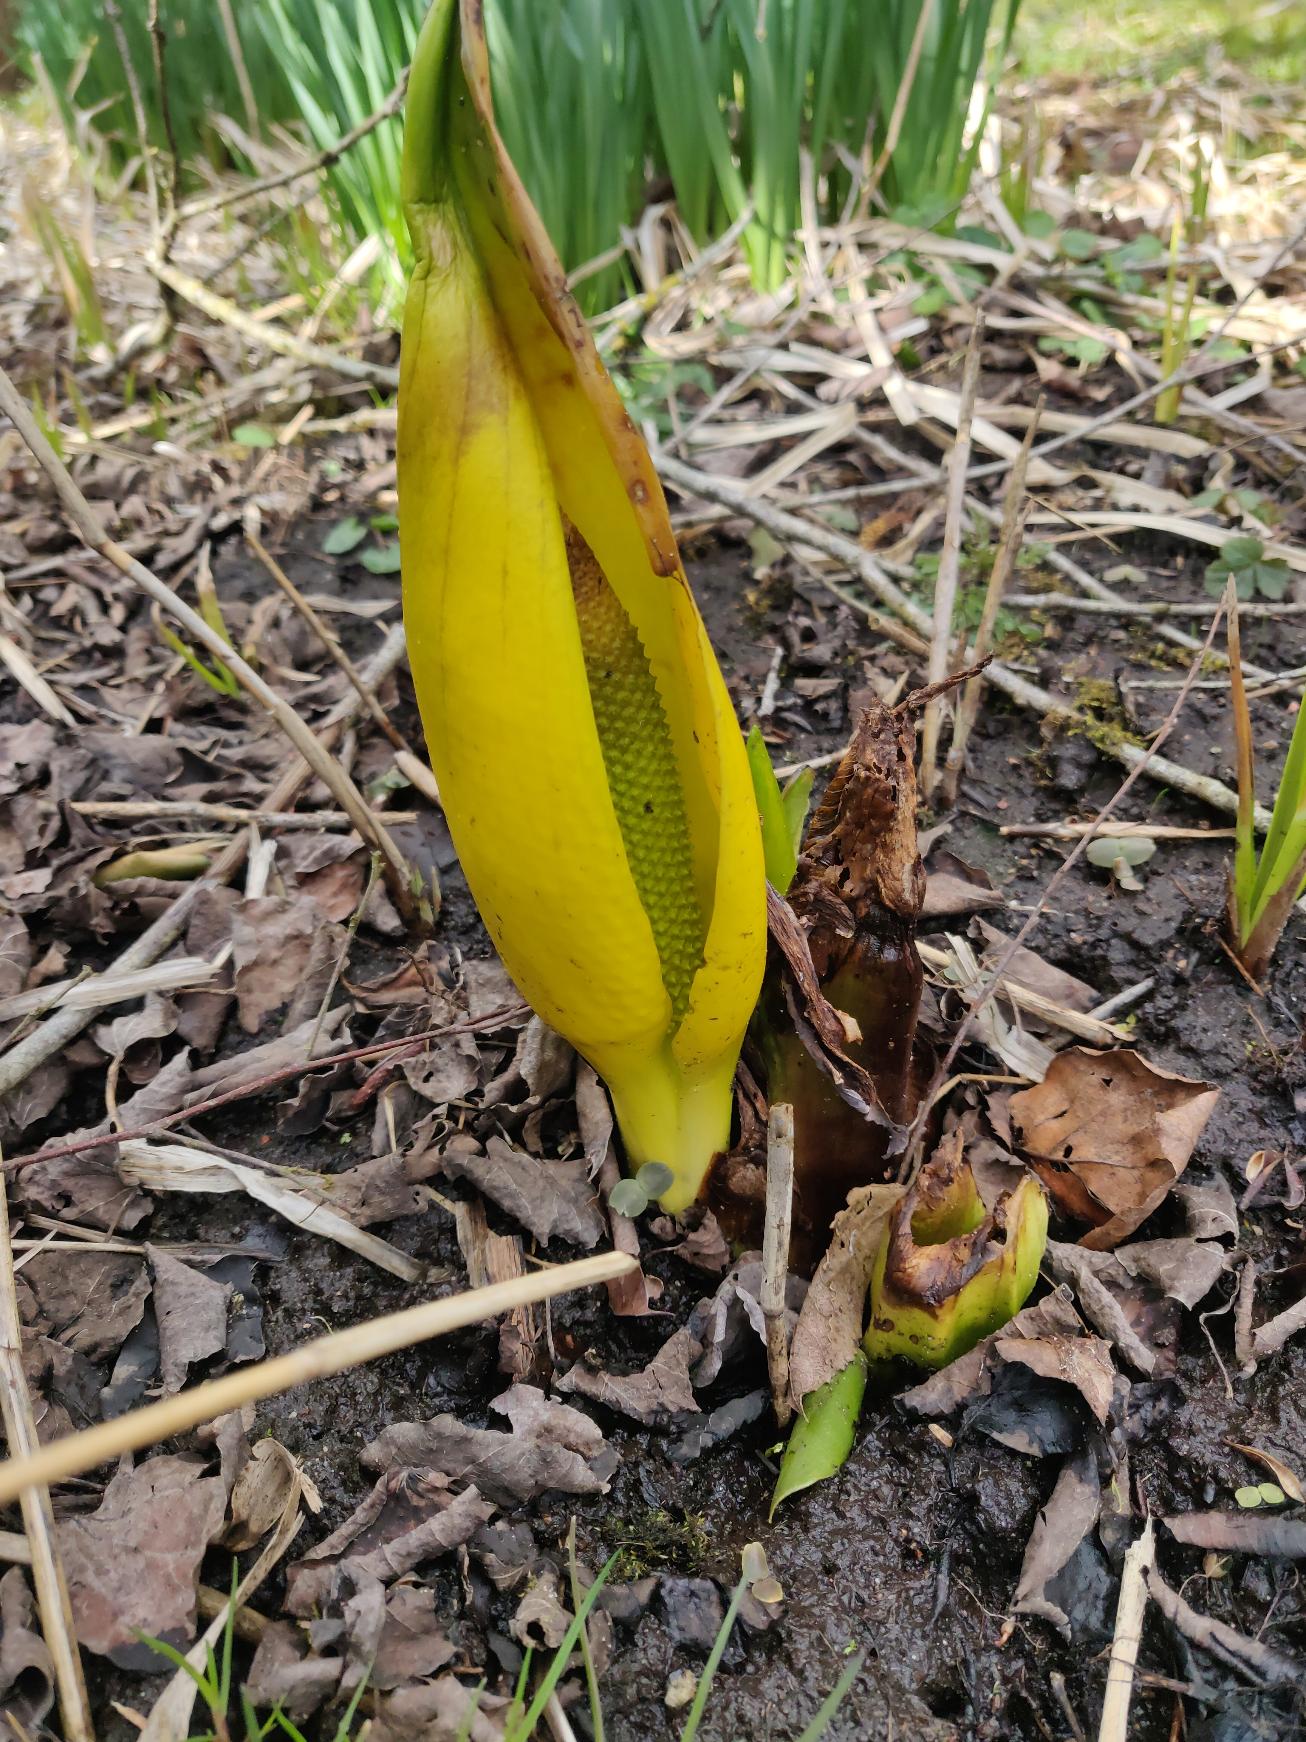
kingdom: Plantae
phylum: Tracheophyta
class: Liliopsida
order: Alismatales
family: Araceae
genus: Lysichiton
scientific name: Lysichiton americanus
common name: Gul kæmpekalla
